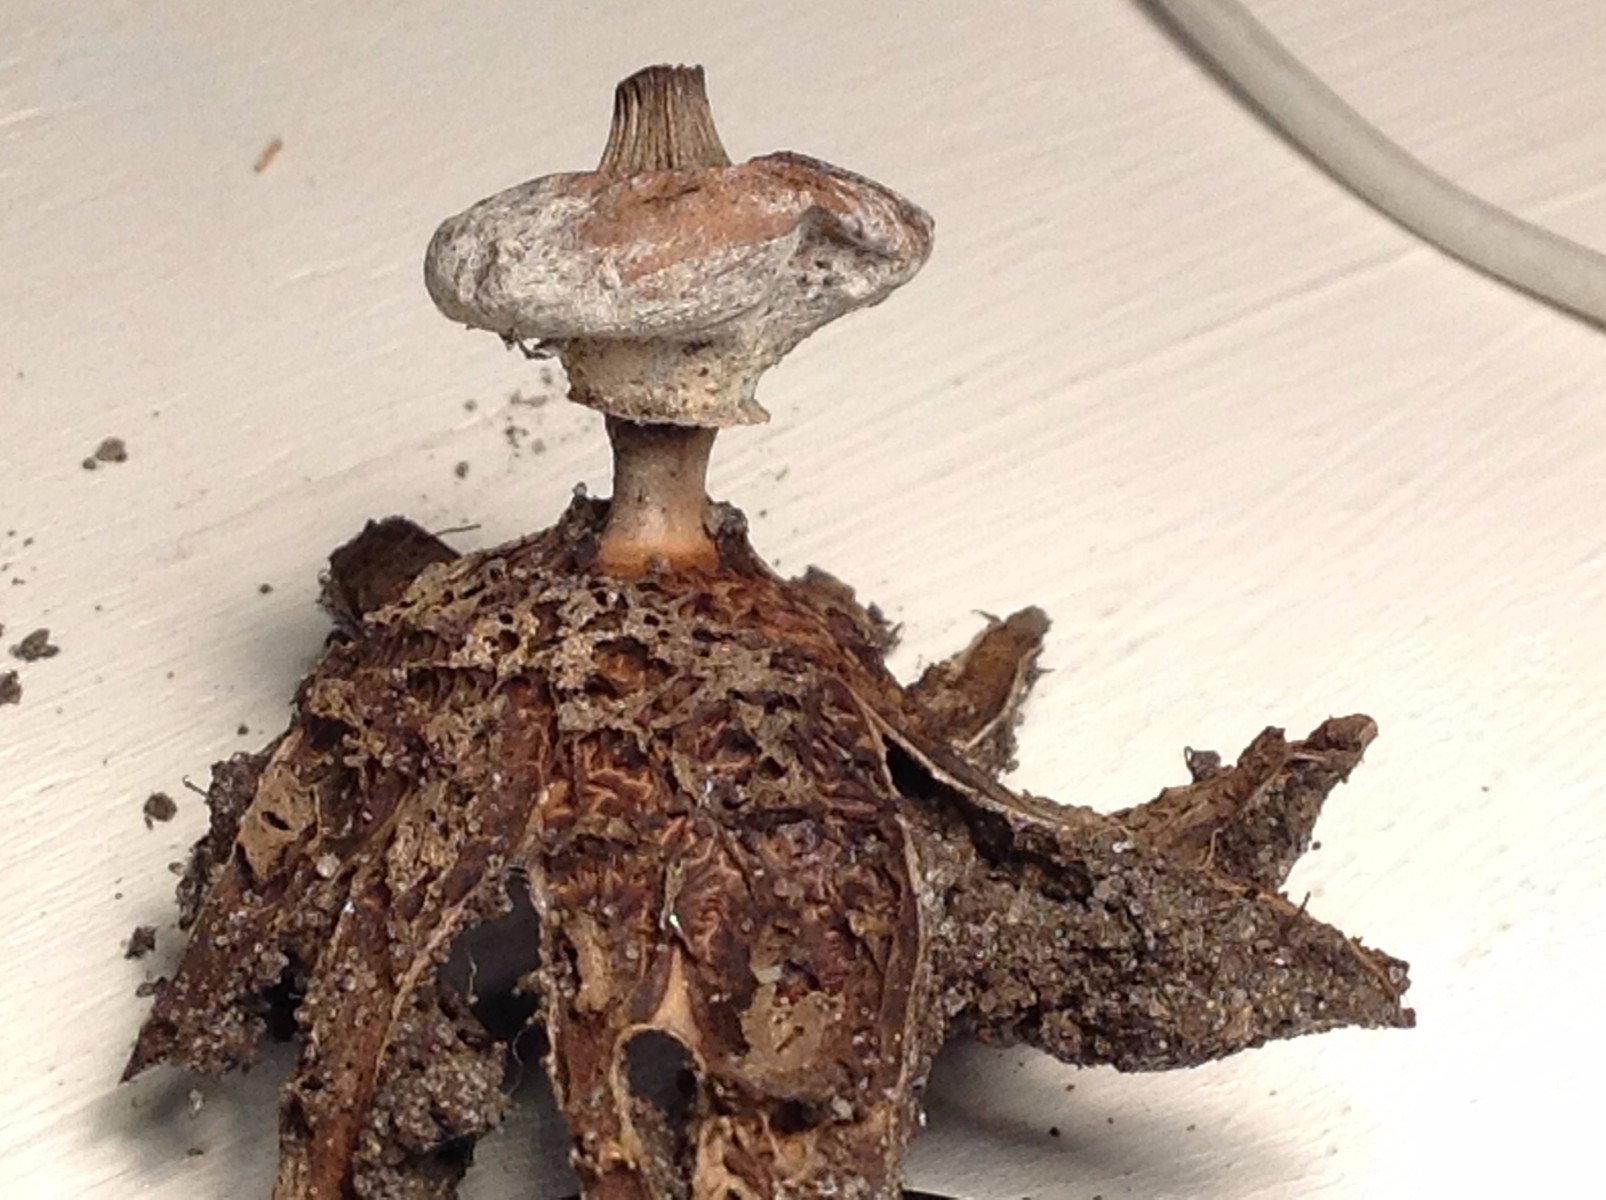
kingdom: Fungi
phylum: Basidiomycota
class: Agaricomycetes
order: Geastrales
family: Geastraceae
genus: Geastrum
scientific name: Geastrum striatum
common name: krave-stjernebold
